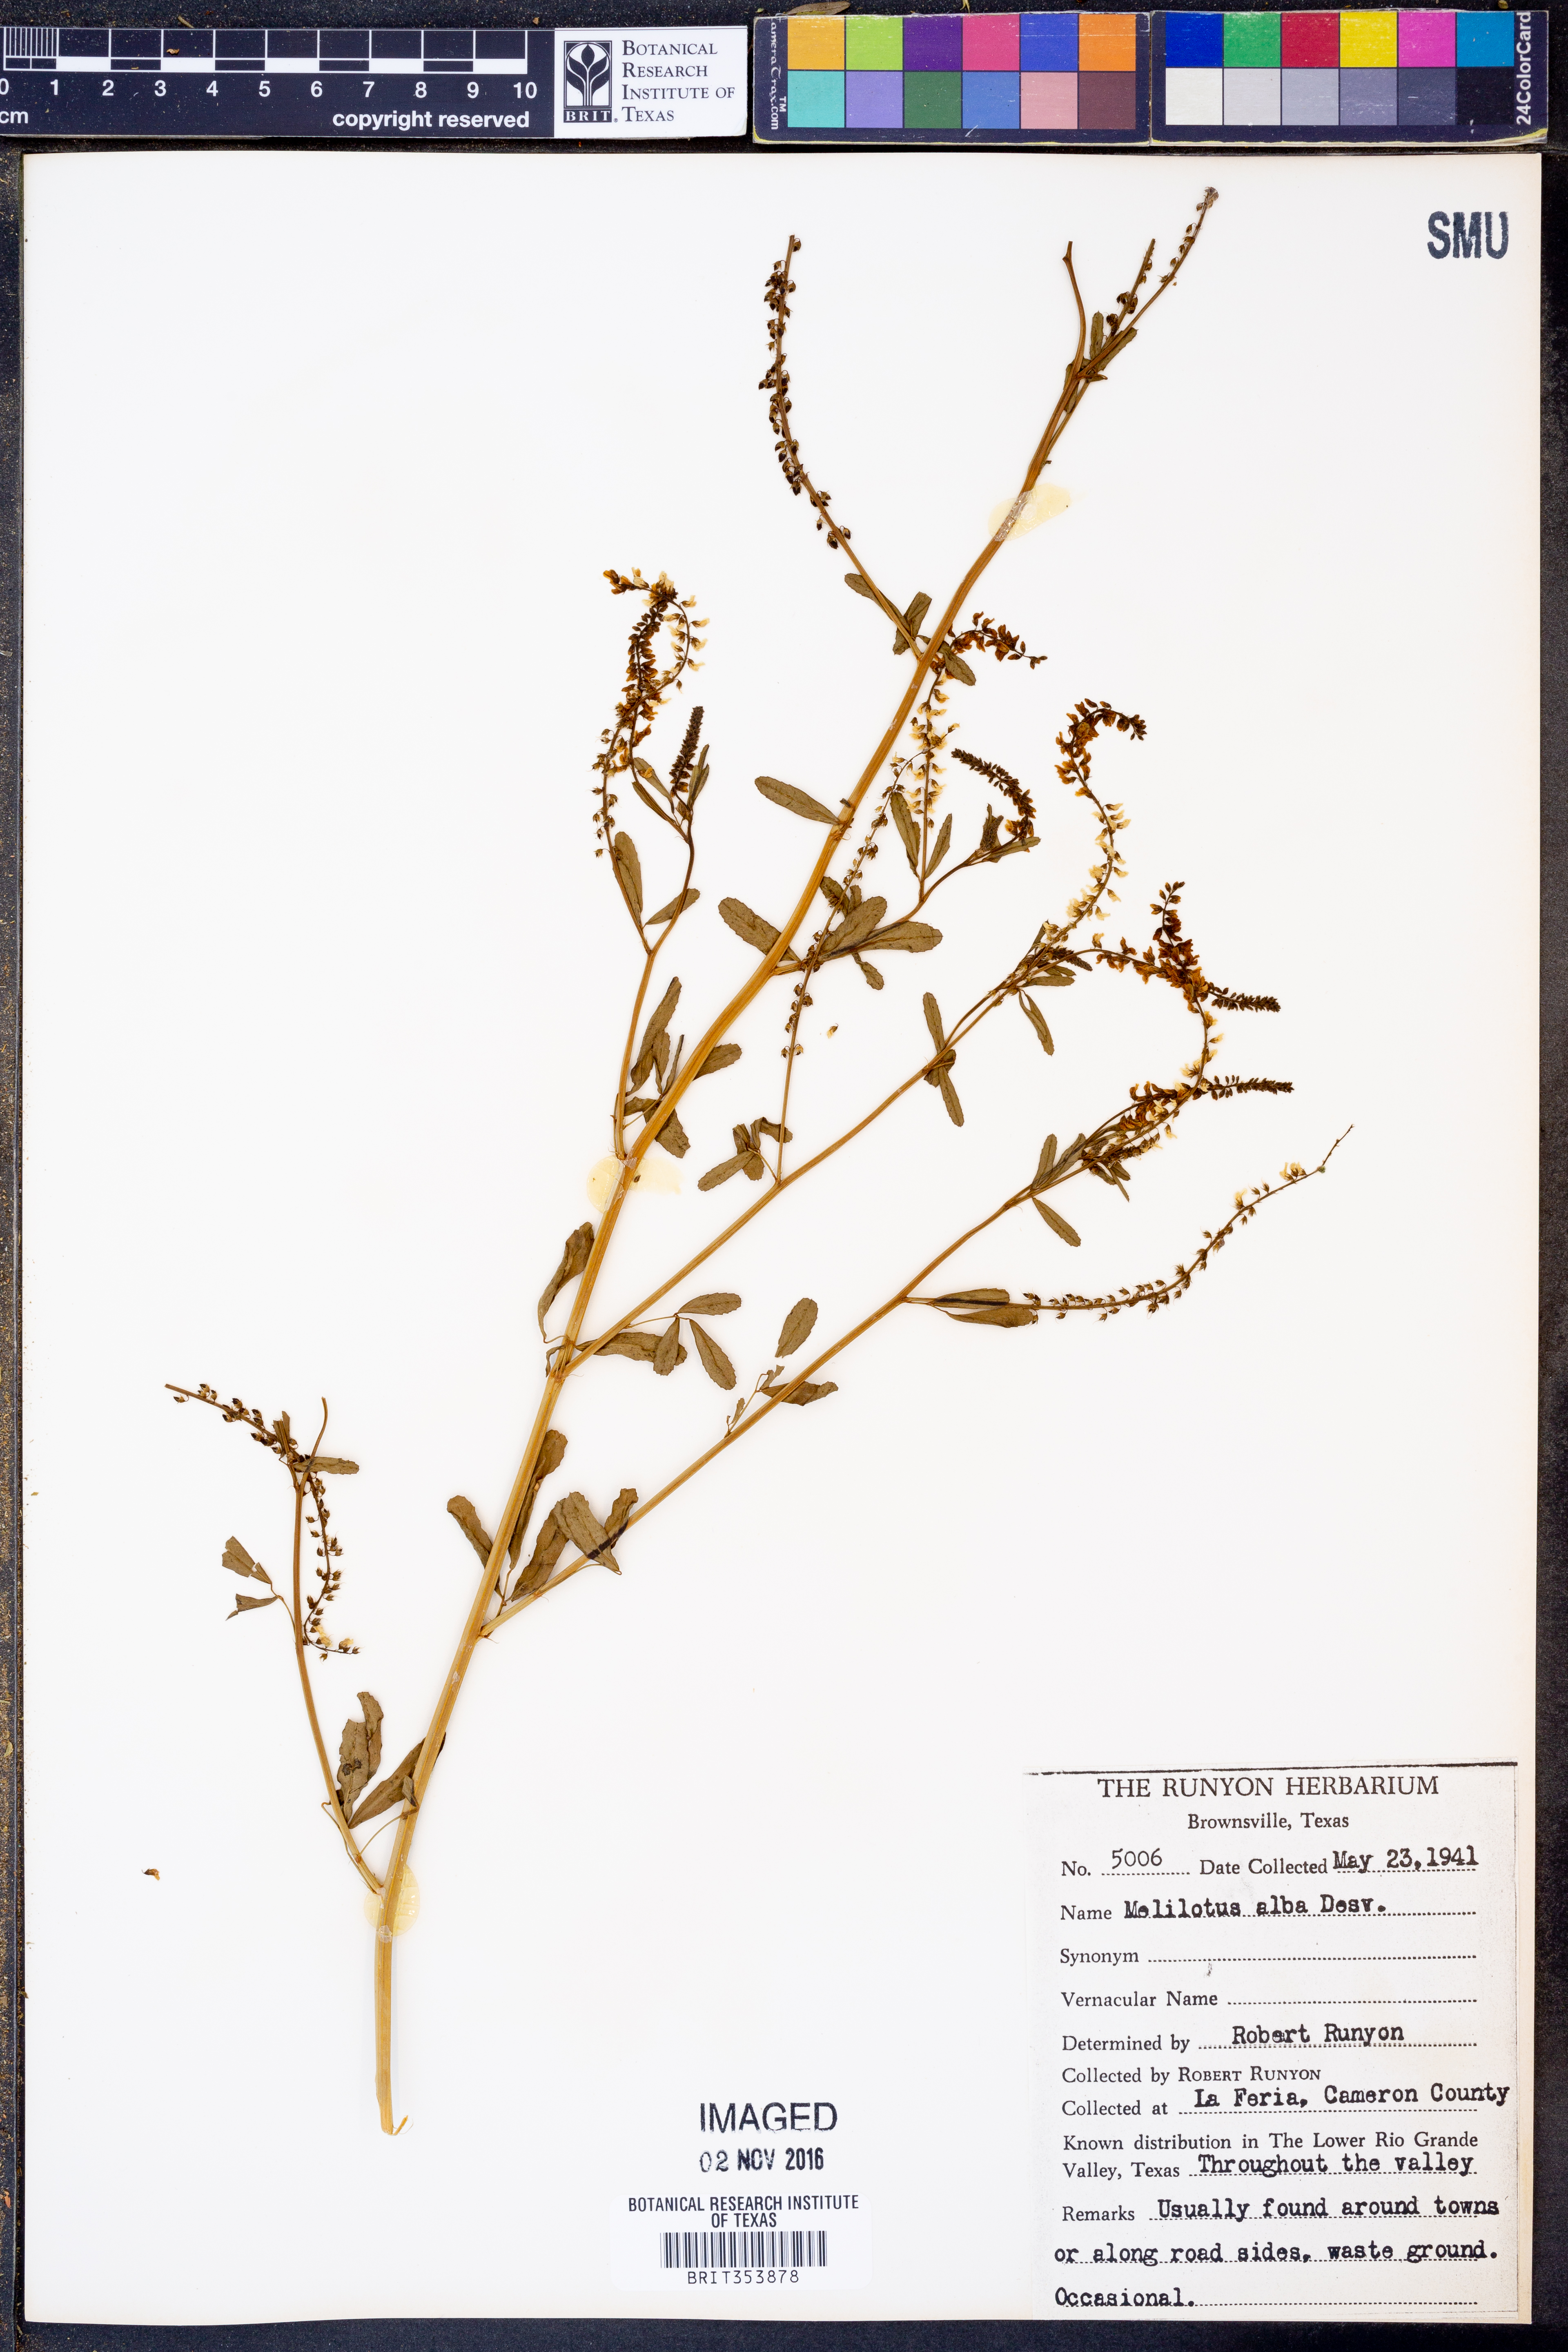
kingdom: Plantae
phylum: Tracheophyta
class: Magnoliopsida
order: Fabales
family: Fabaceae
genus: Melilotus
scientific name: Melilotus albus
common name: White melilot
